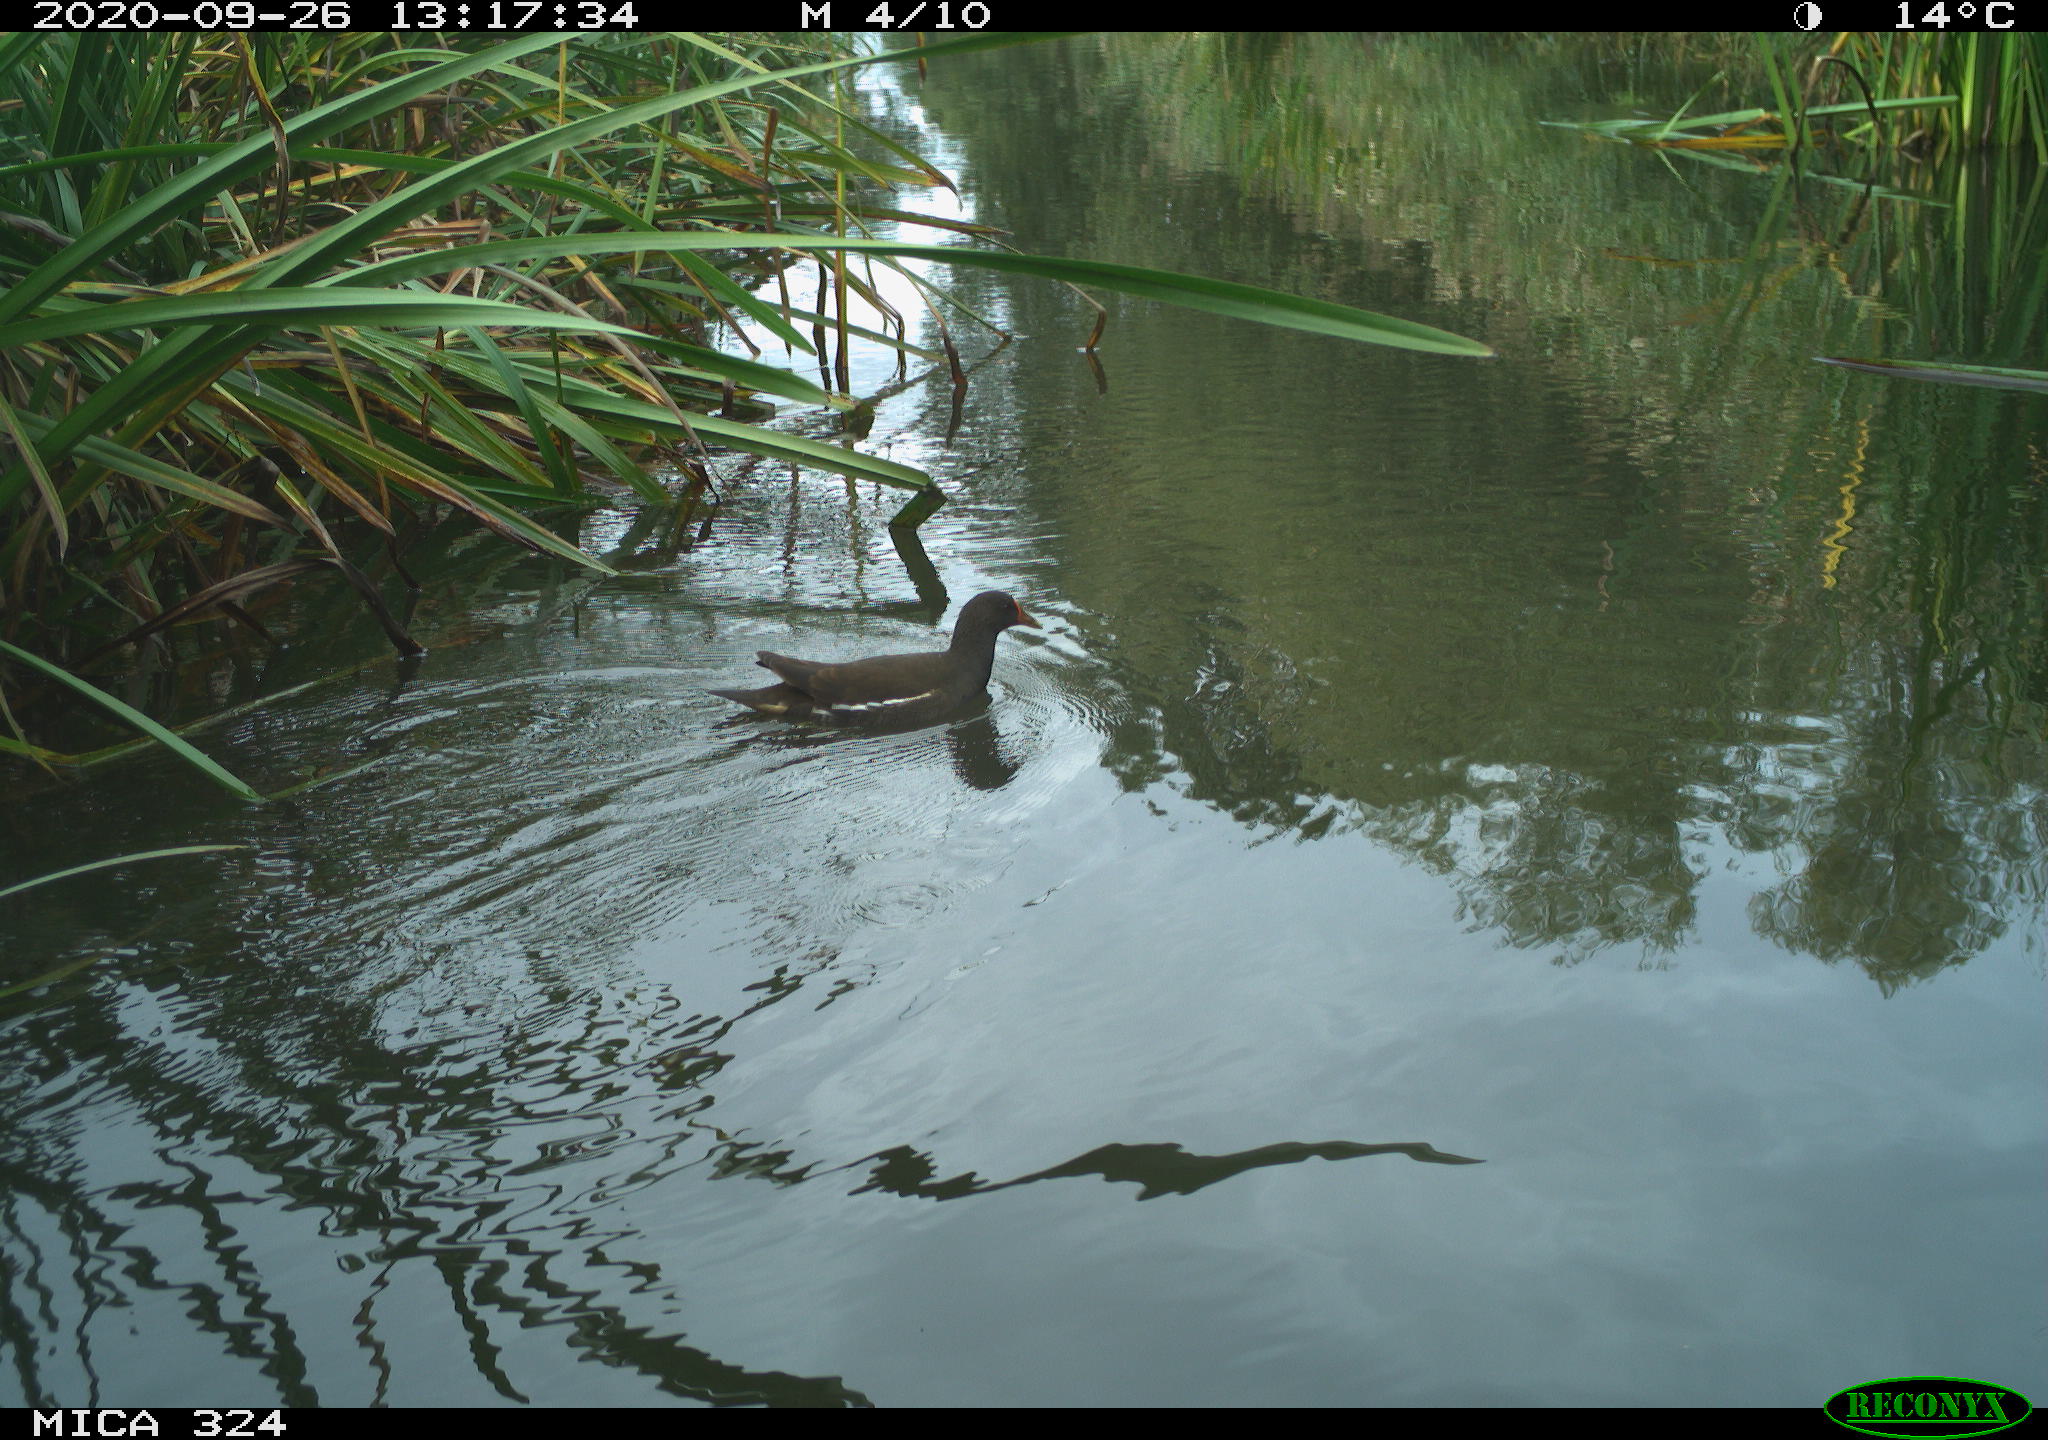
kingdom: Animalia
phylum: Chordata
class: Aves
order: Gruiformes
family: Rallidae
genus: Gallinula
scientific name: Gallinula chloropus
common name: Common moorhen
